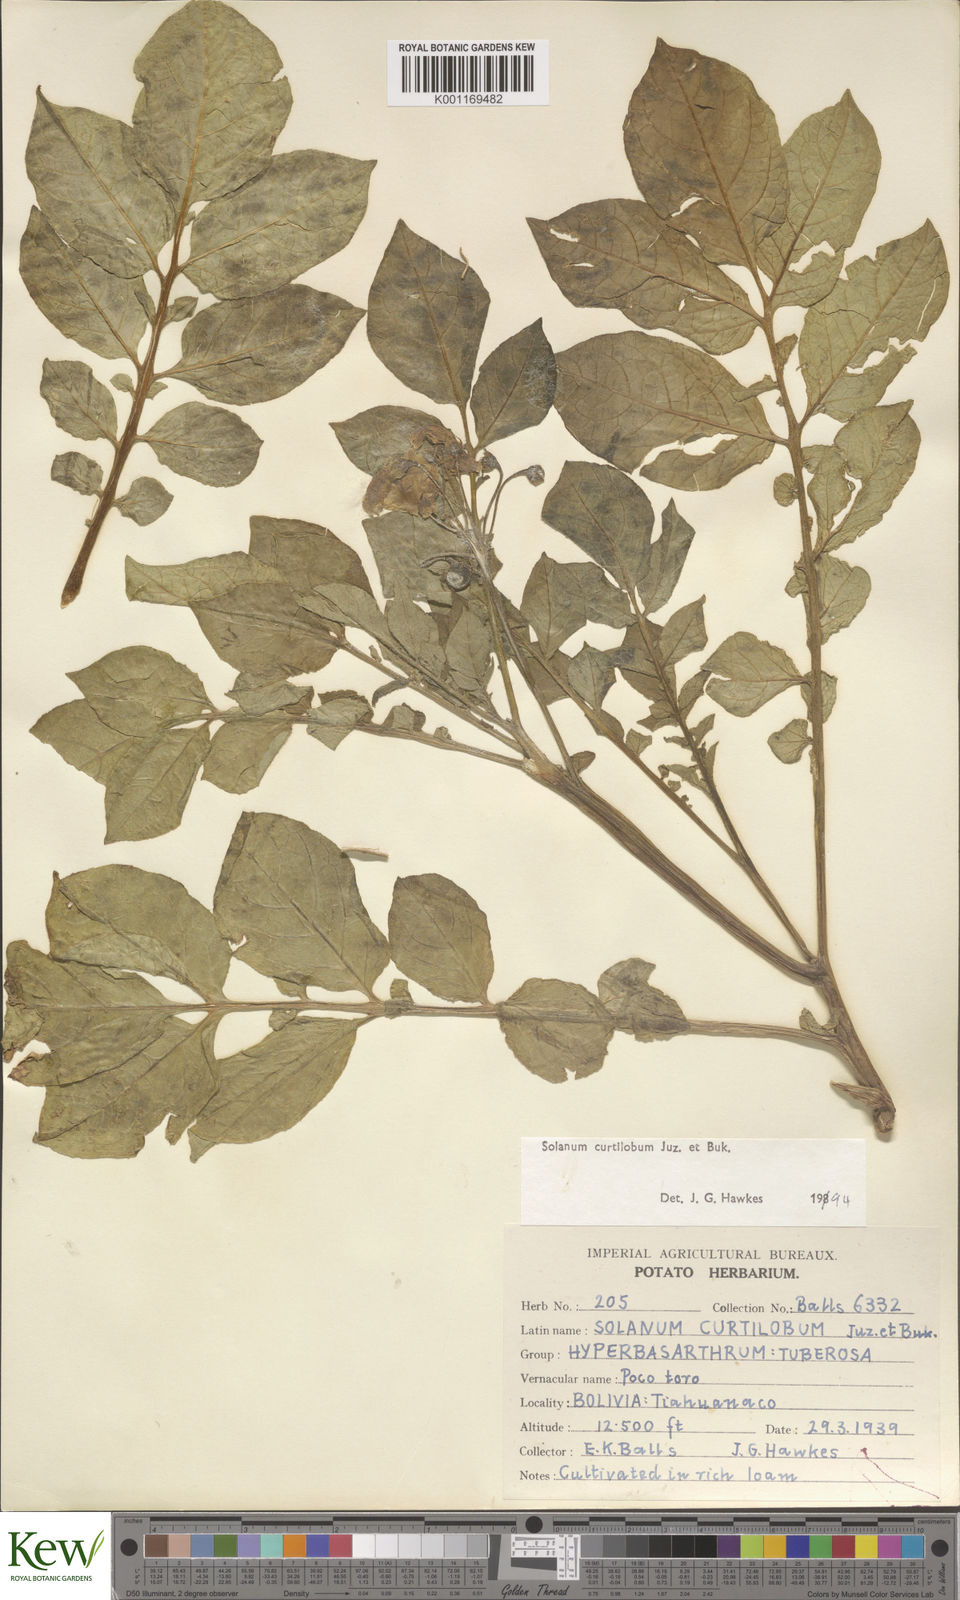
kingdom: Plantae
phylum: Tracheophyta
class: Magnoliopsida
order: Solanales
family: Solanaceae
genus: Solanum
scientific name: Solanum curtilobum
